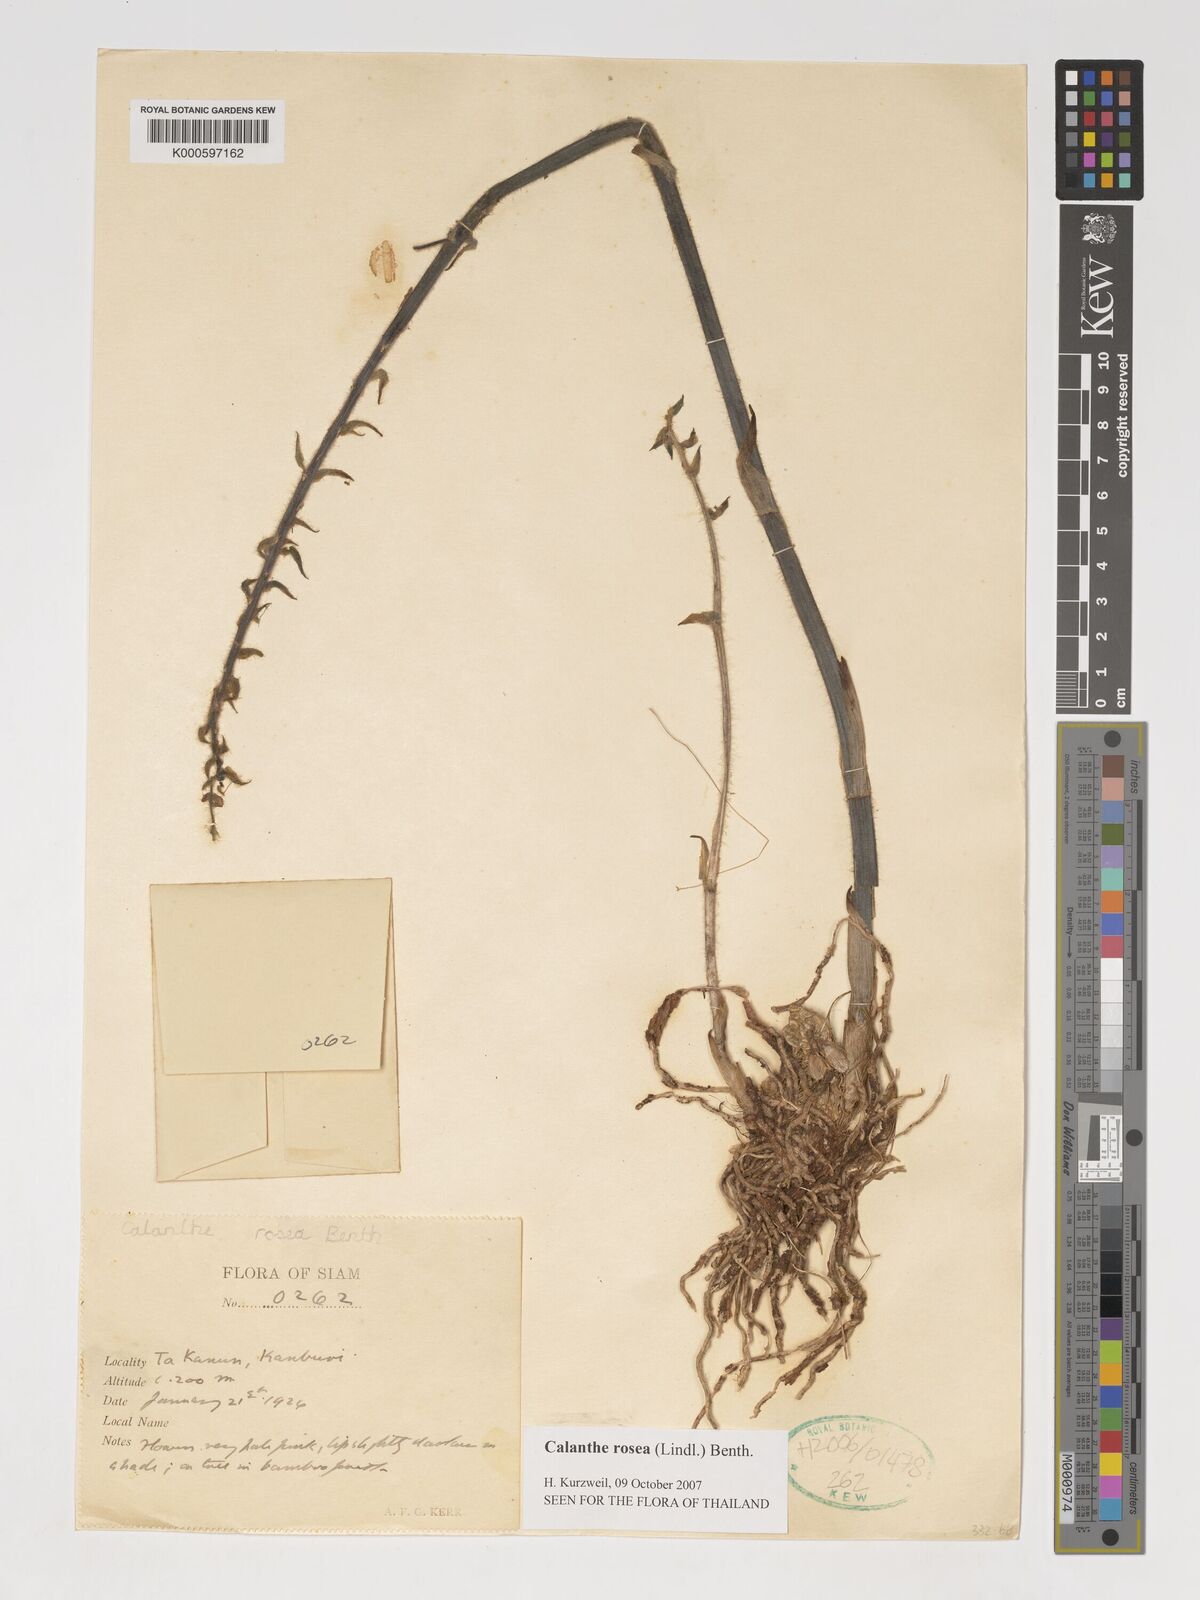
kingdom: Plantae
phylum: Tracheophyta
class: Liliopsida
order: Asparagales
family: Orchidaceae
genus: Calanthe
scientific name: Calanthe rosea
